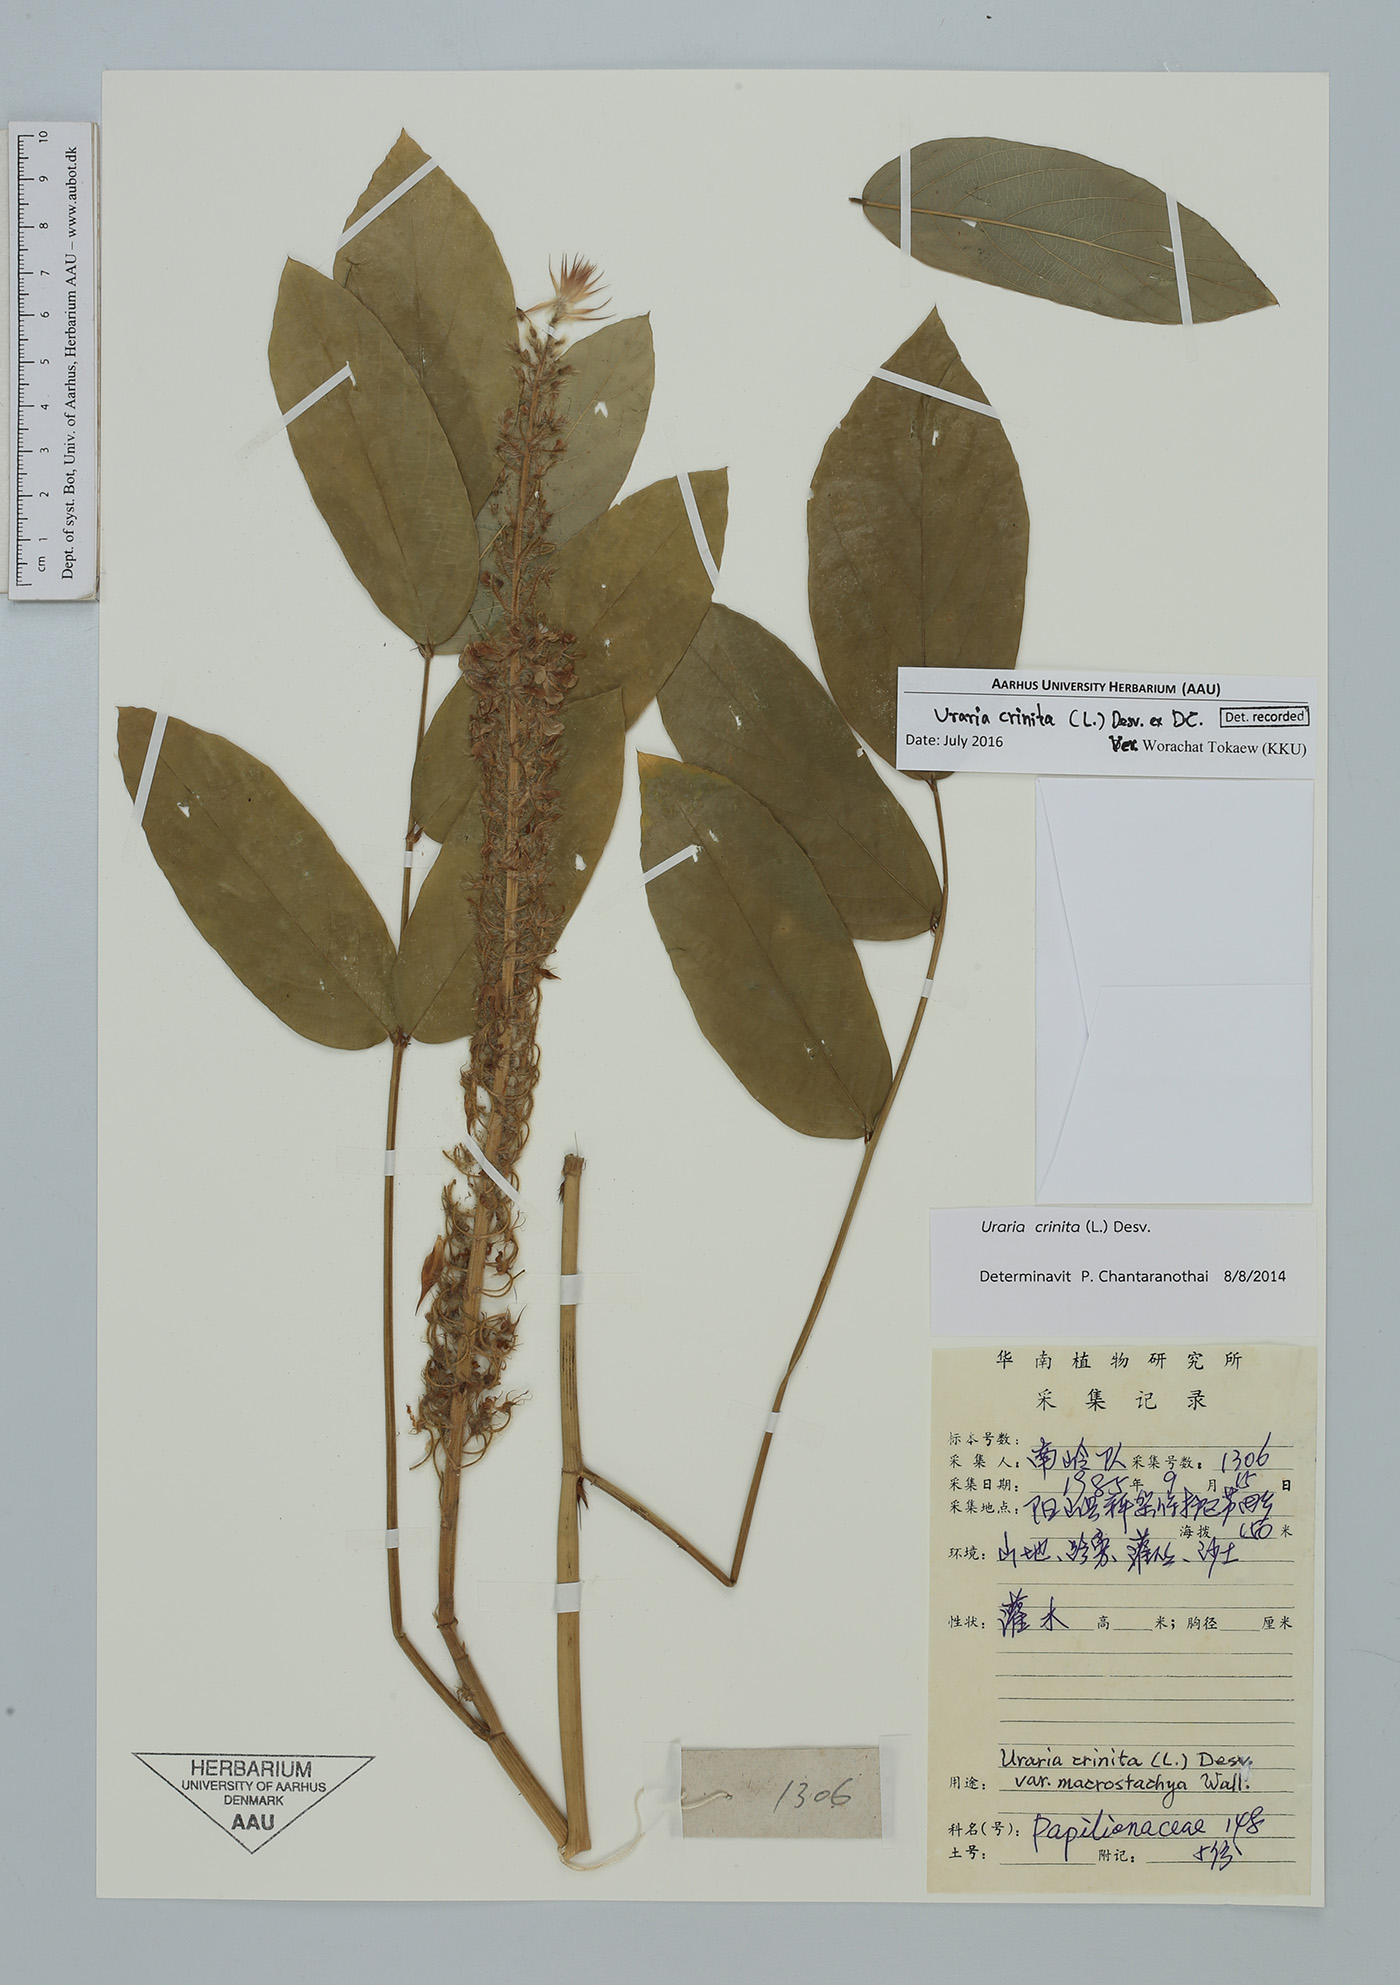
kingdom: Plantae
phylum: Tracheophyta
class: Magnoliopsida
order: Fabales
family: Fabaceae
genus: Uraria
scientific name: Uraria crinita
